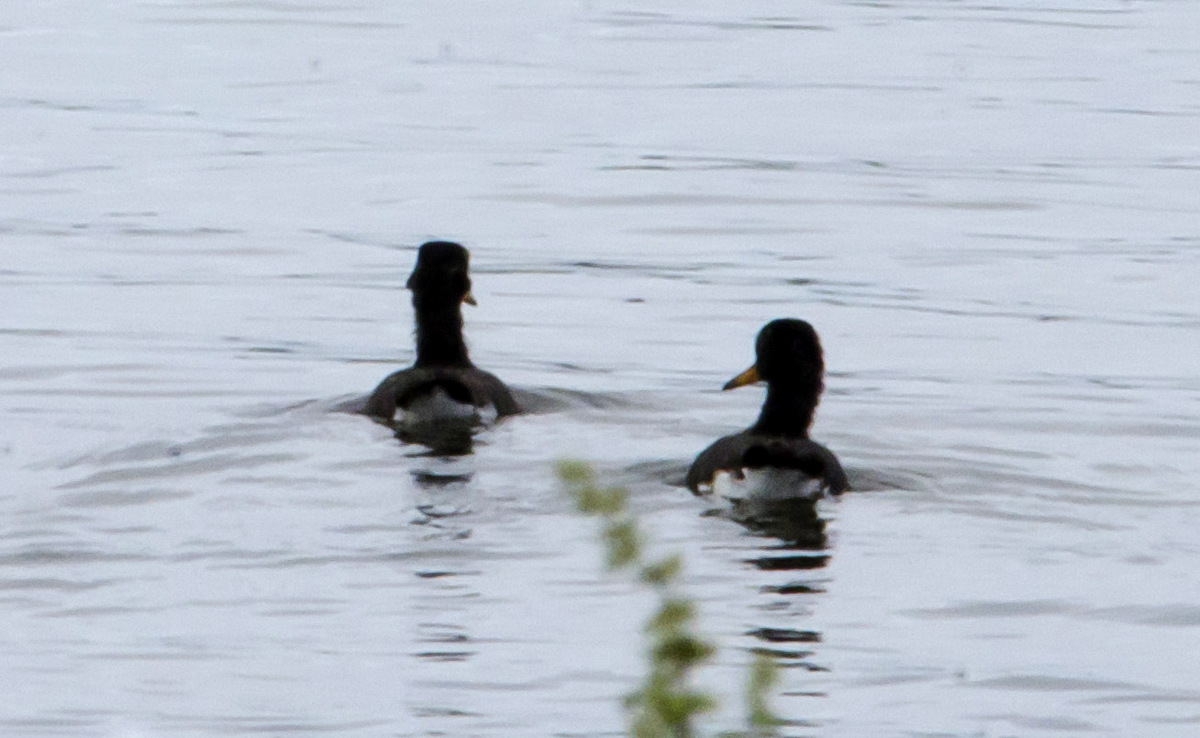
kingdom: Animalia
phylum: Chordata
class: Aves
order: Charadriiformes
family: Haematopodidae
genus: Haematopus
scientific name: Haematopus ostralegus
